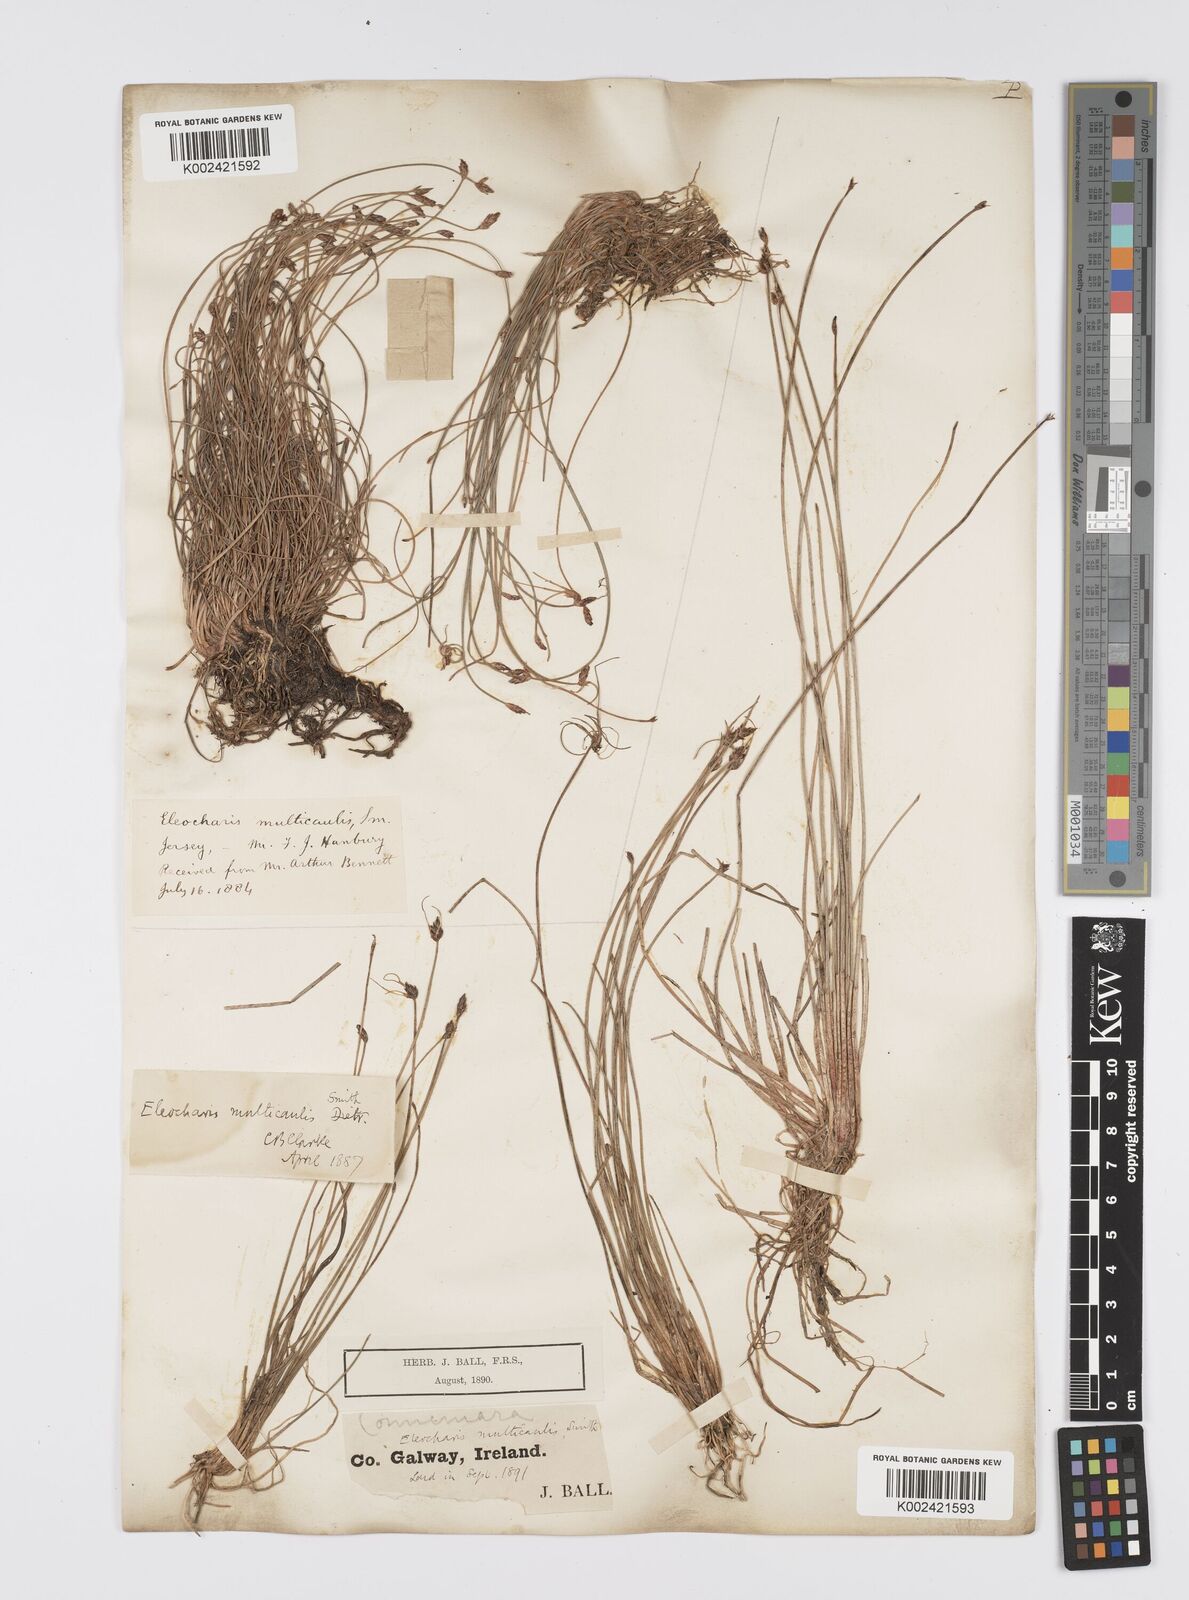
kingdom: Plantae
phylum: Tracheophyta
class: Liliopsida
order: Poales
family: Cyperaceae
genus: Eleocharis
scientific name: Eleocharis multicaulis
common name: Many-stalked spike-rush
